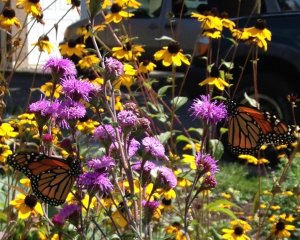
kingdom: Animalia
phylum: Arthropoda
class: Insecta
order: Lepidoptera
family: Nymphalidae
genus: Danaus
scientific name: Danaus plexippus
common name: Monarch
